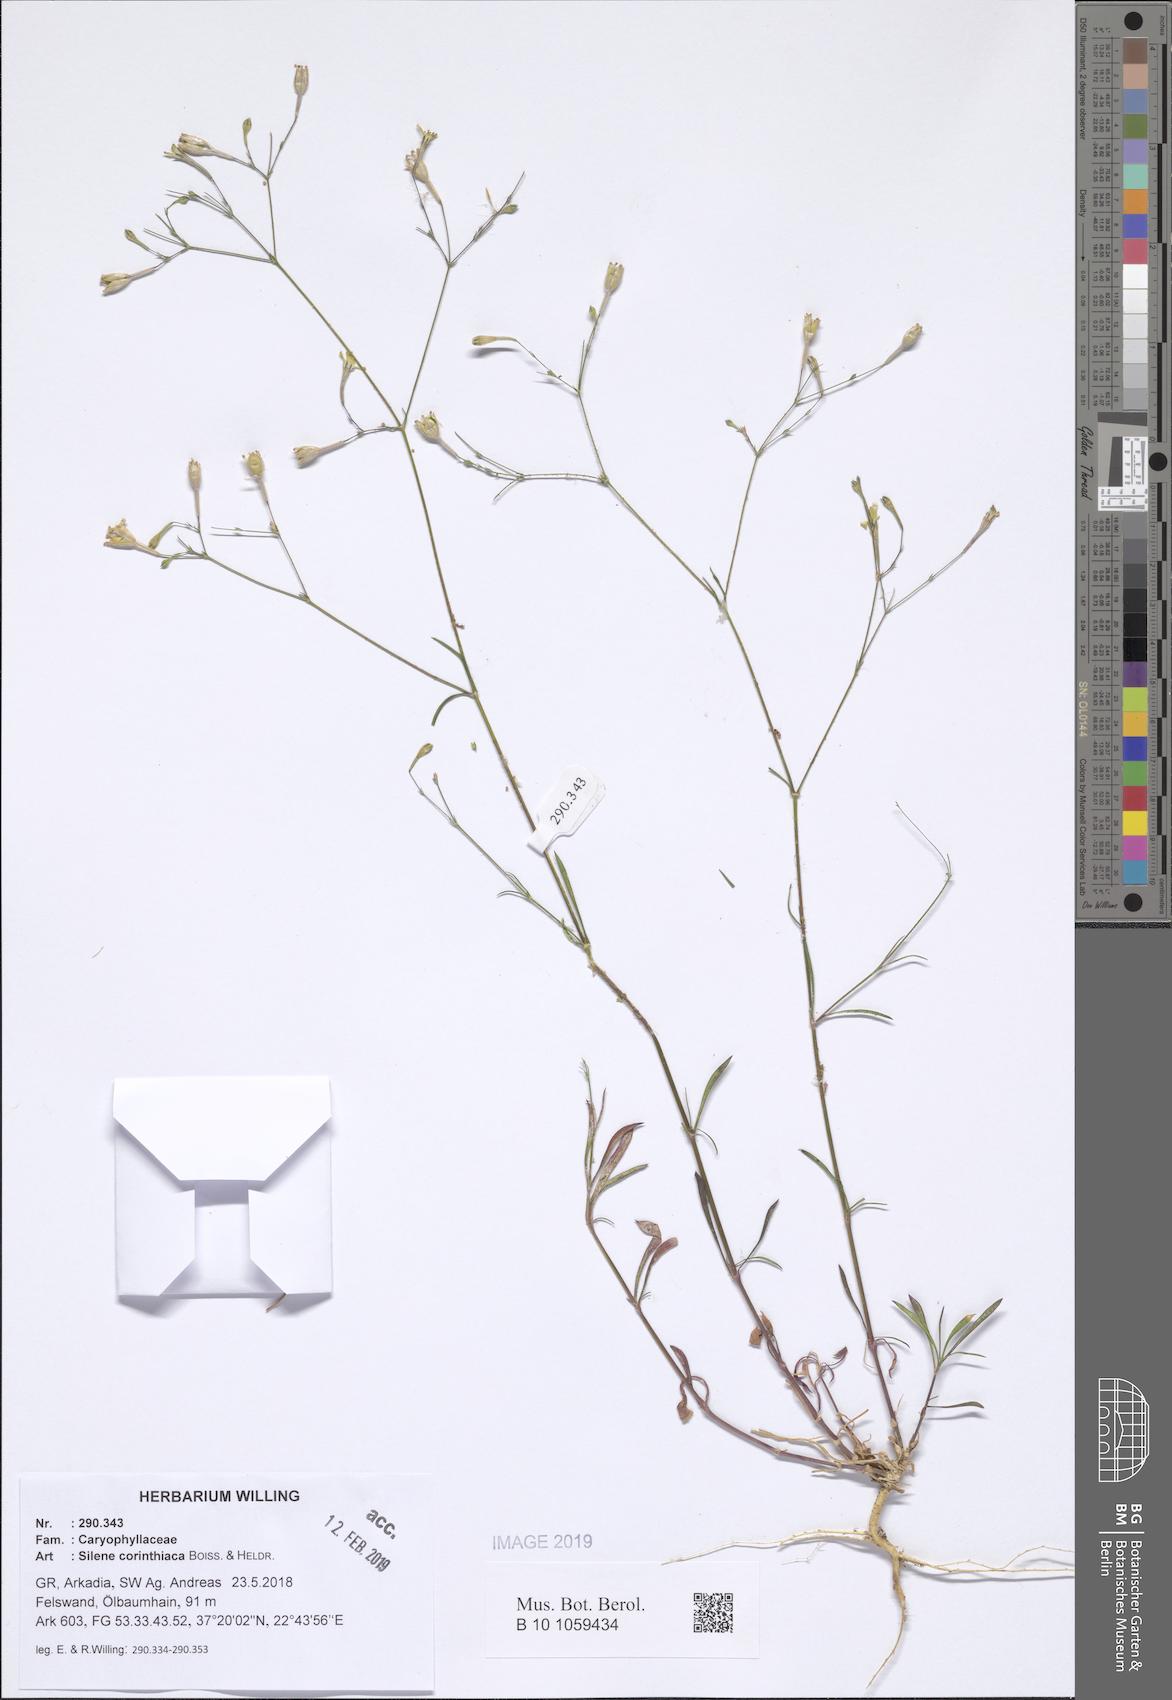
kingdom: Plantae
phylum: Tracheophyta
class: Magnoliopsida
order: Caryophyllales
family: Caryophyllaceae
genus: Silene
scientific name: Silene corinthiaca
